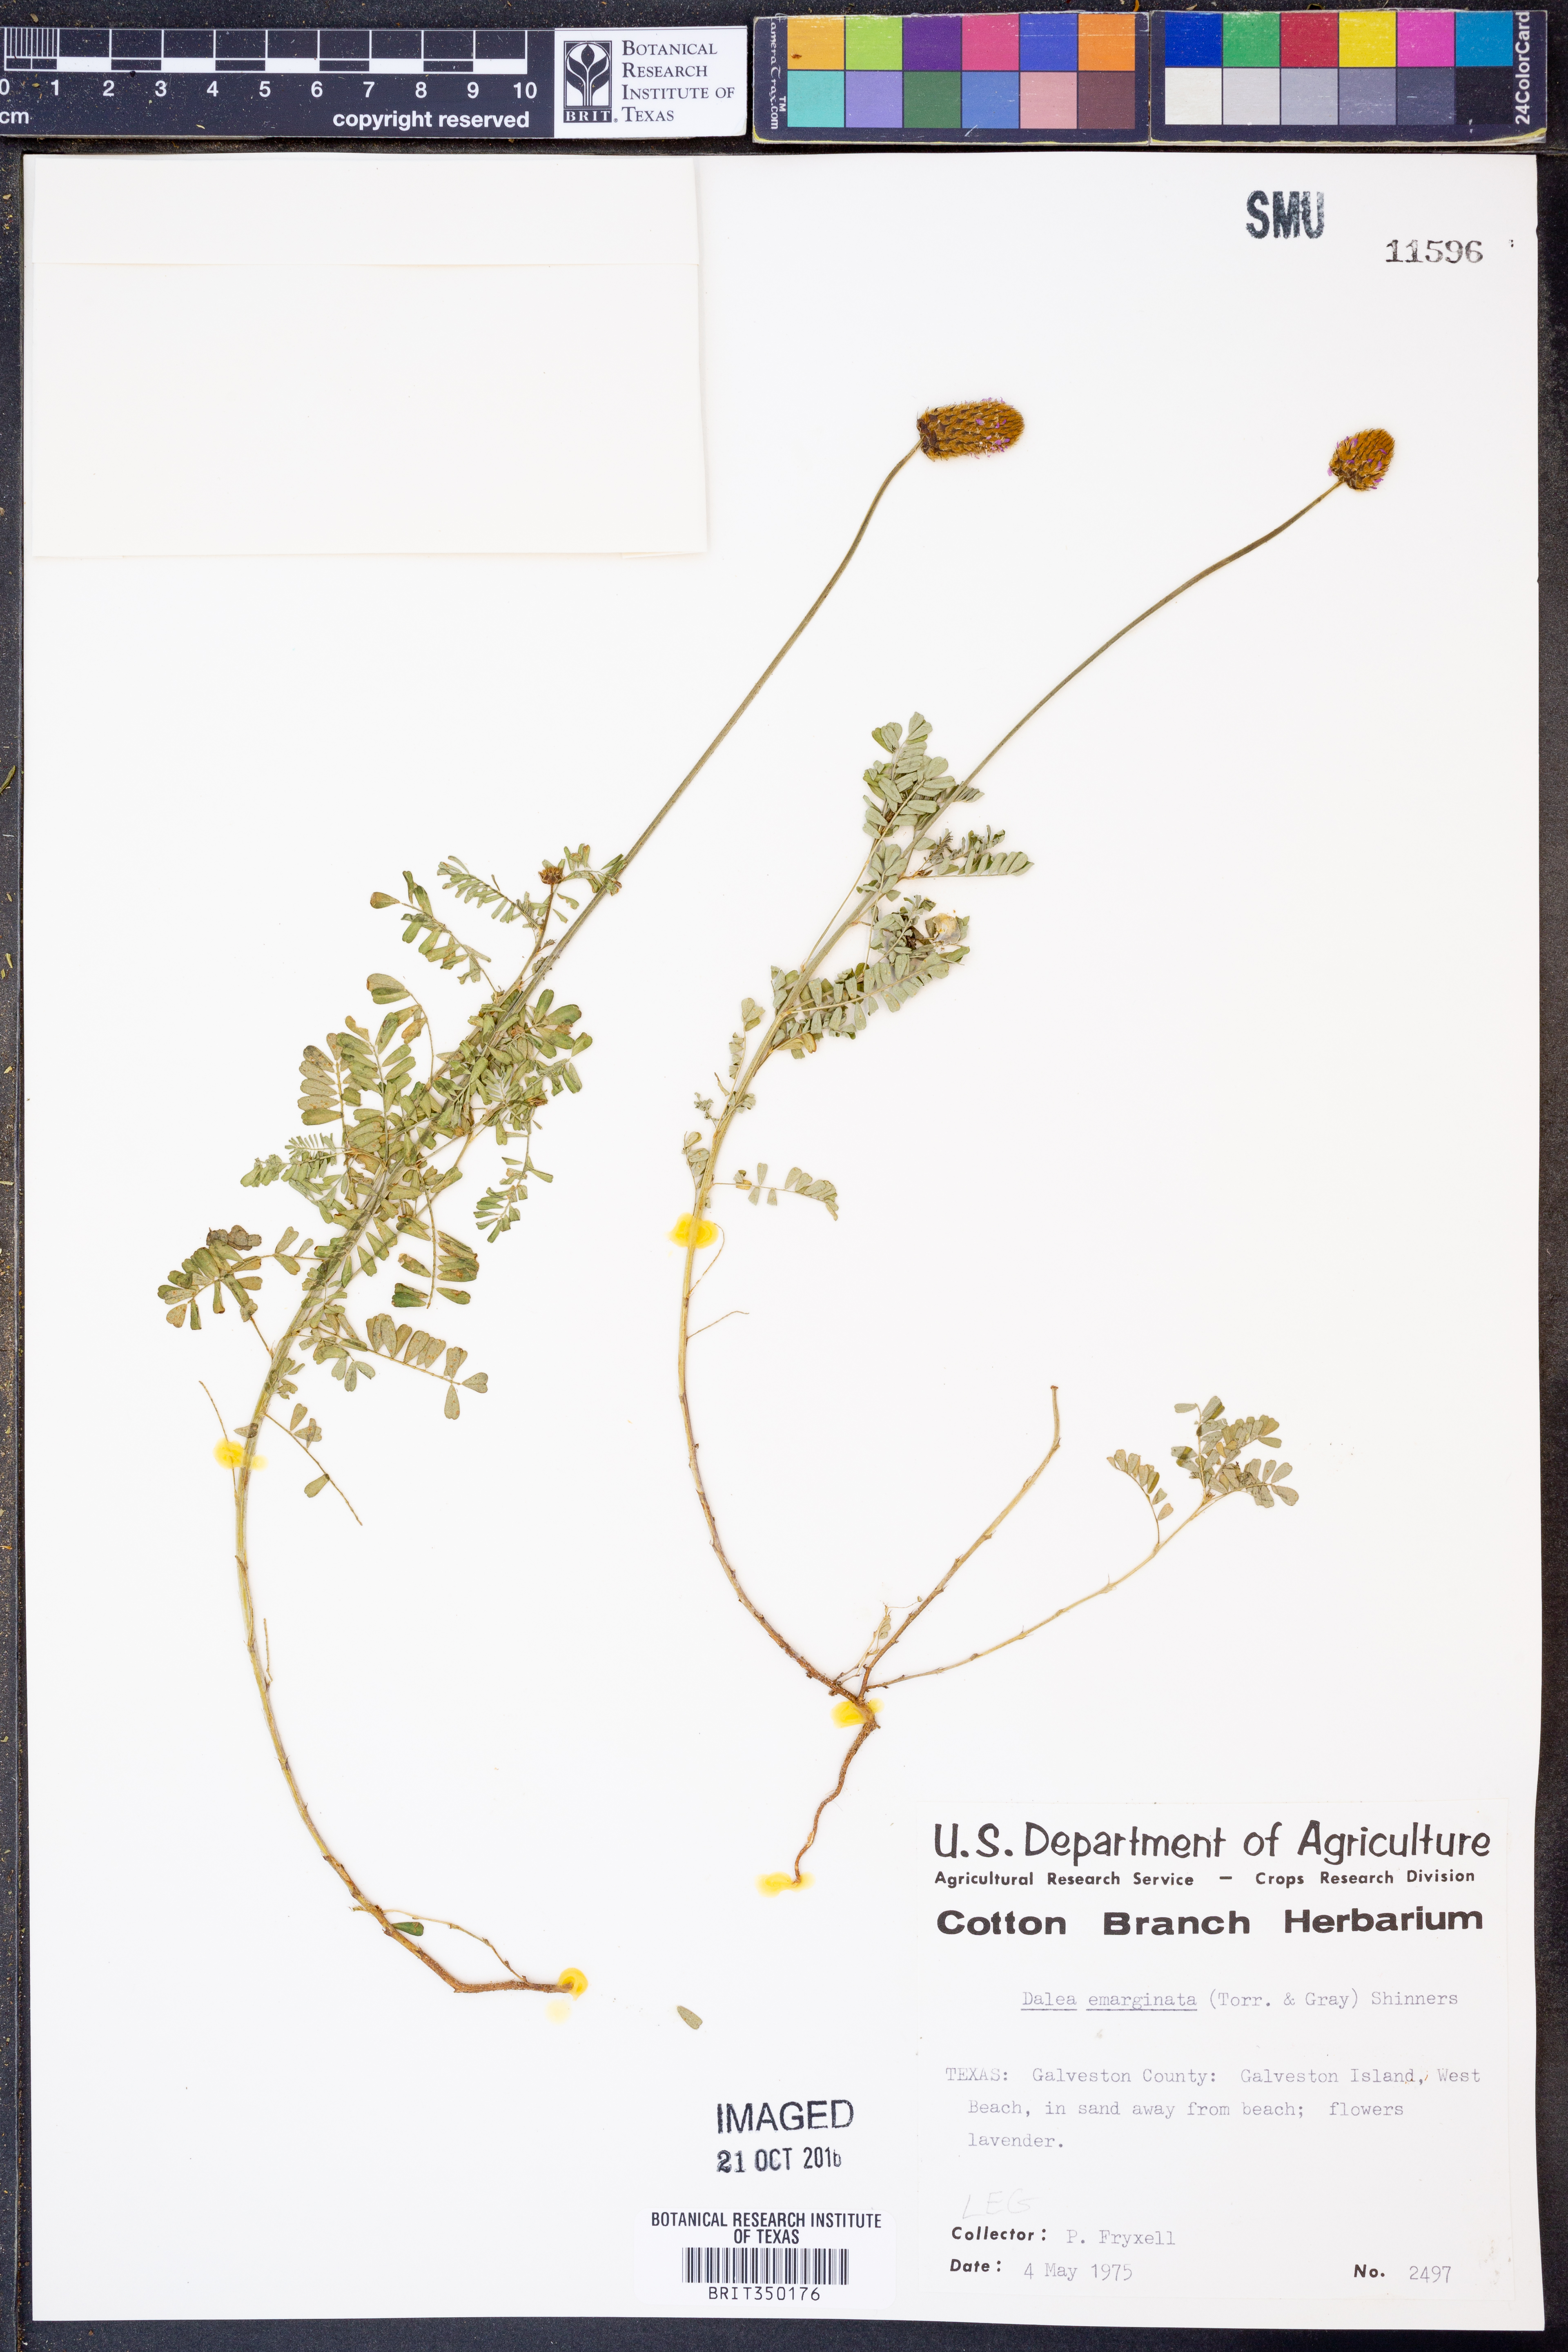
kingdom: Plantae
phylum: Tracheophyta
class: Magnoliopsida
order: Fabales
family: Fabaceae
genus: Dalea
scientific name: Dalea emarginata
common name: Wedgeleaf prairie clover
